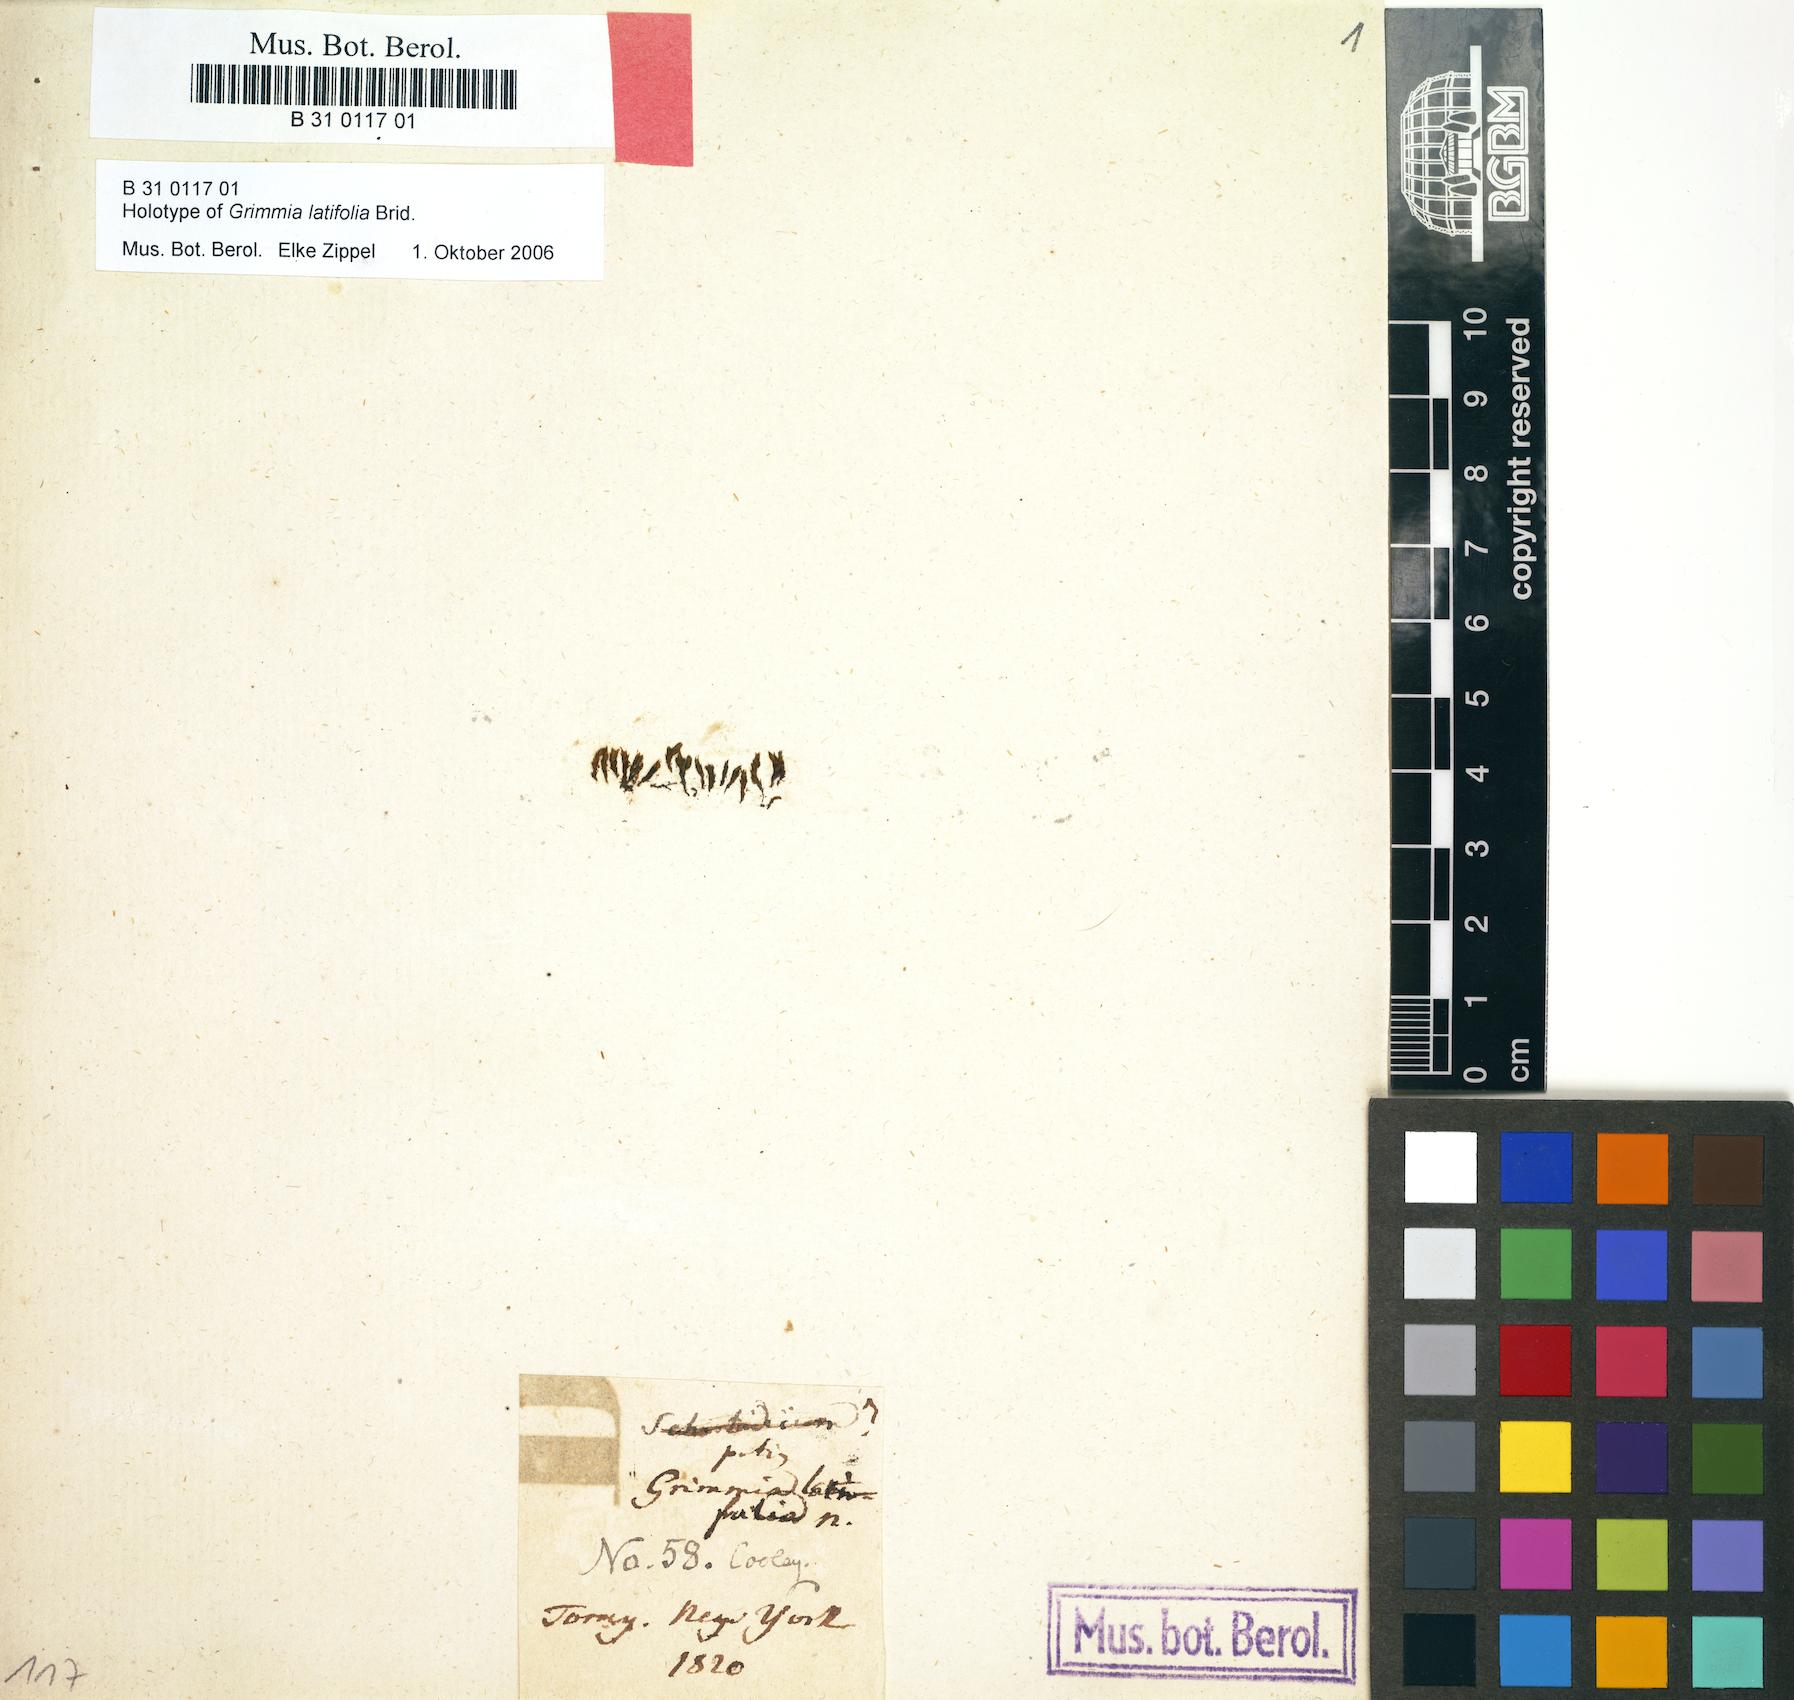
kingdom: Plantae
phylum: Bryophyta
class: Bryopsida
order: Grimmiales
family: Grimmiaceae
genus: Schistidium
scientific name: Schistidium viride
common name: Dark-green bloom moss
